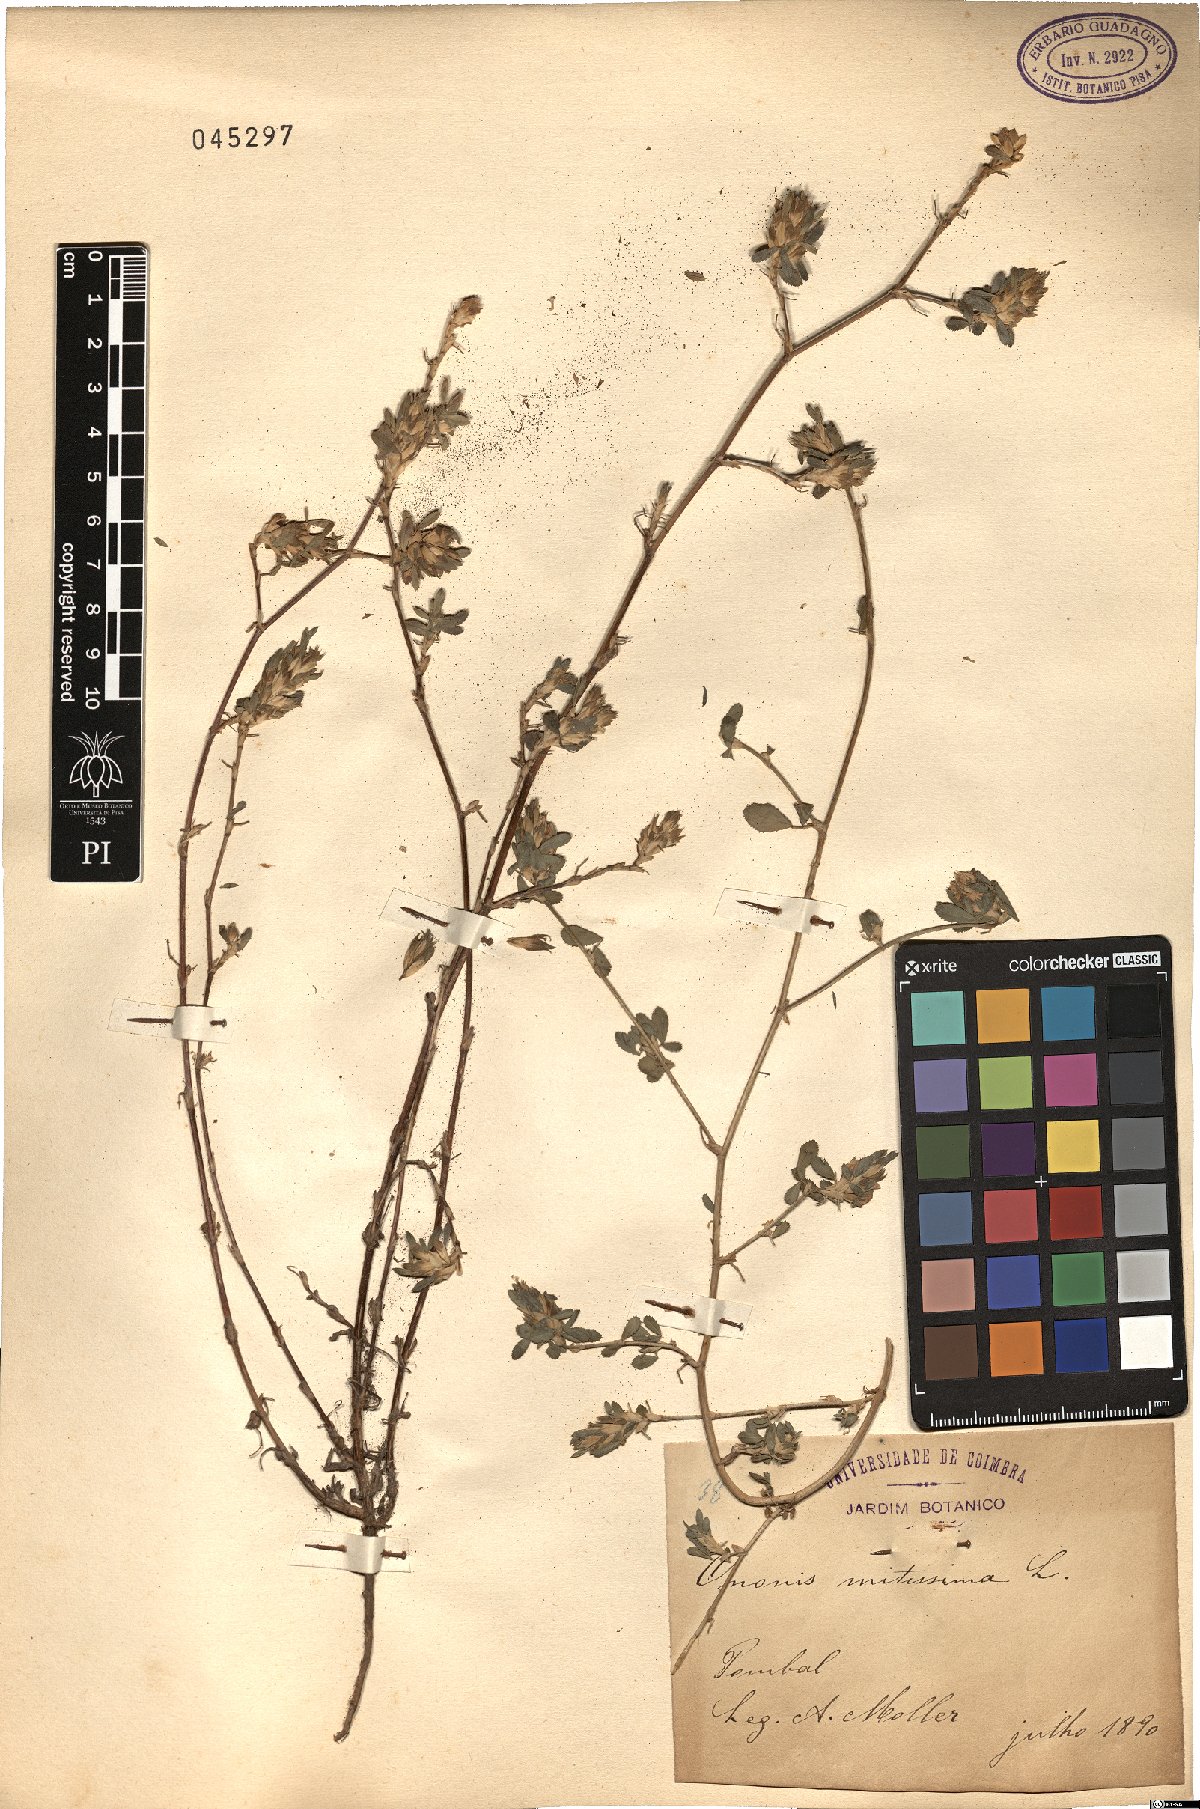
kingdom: Plantae
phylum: Tracheophyta
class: Magnoliopsida
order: Fabales
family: Fabaceae
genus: Ononis
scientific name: Ononis mitissima
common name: Mediterranean restharrow
